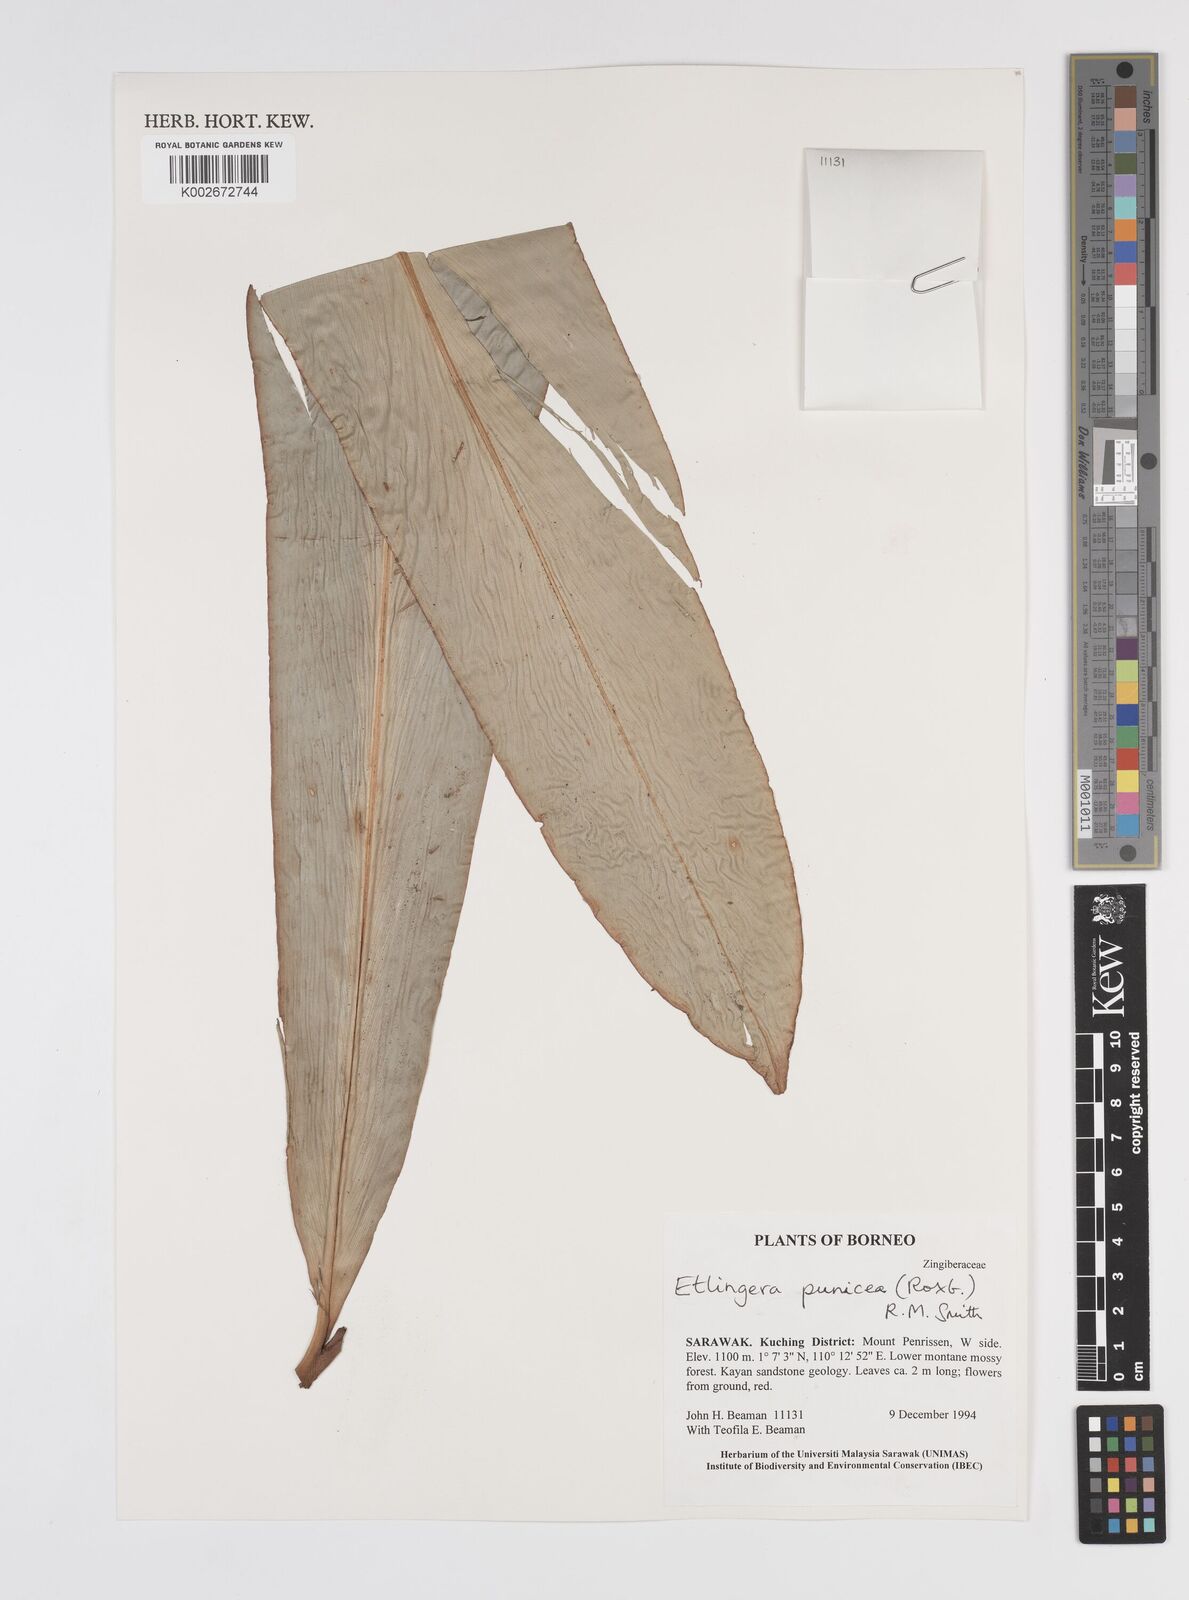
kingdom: Plantae
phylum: Tracheophyta
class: Liliopsida
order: Zingiberales
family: Zingiberaceae
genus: Etlingera
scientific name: Etlingera punicea
